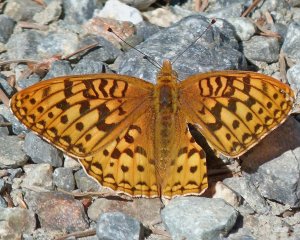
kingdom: Animalia
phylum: Arthropoda
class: Insecta
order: Lepidoptera
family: Nymphalidae
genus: Speyeria
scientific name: Speyeria zerene
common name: Zerene Fritillary
